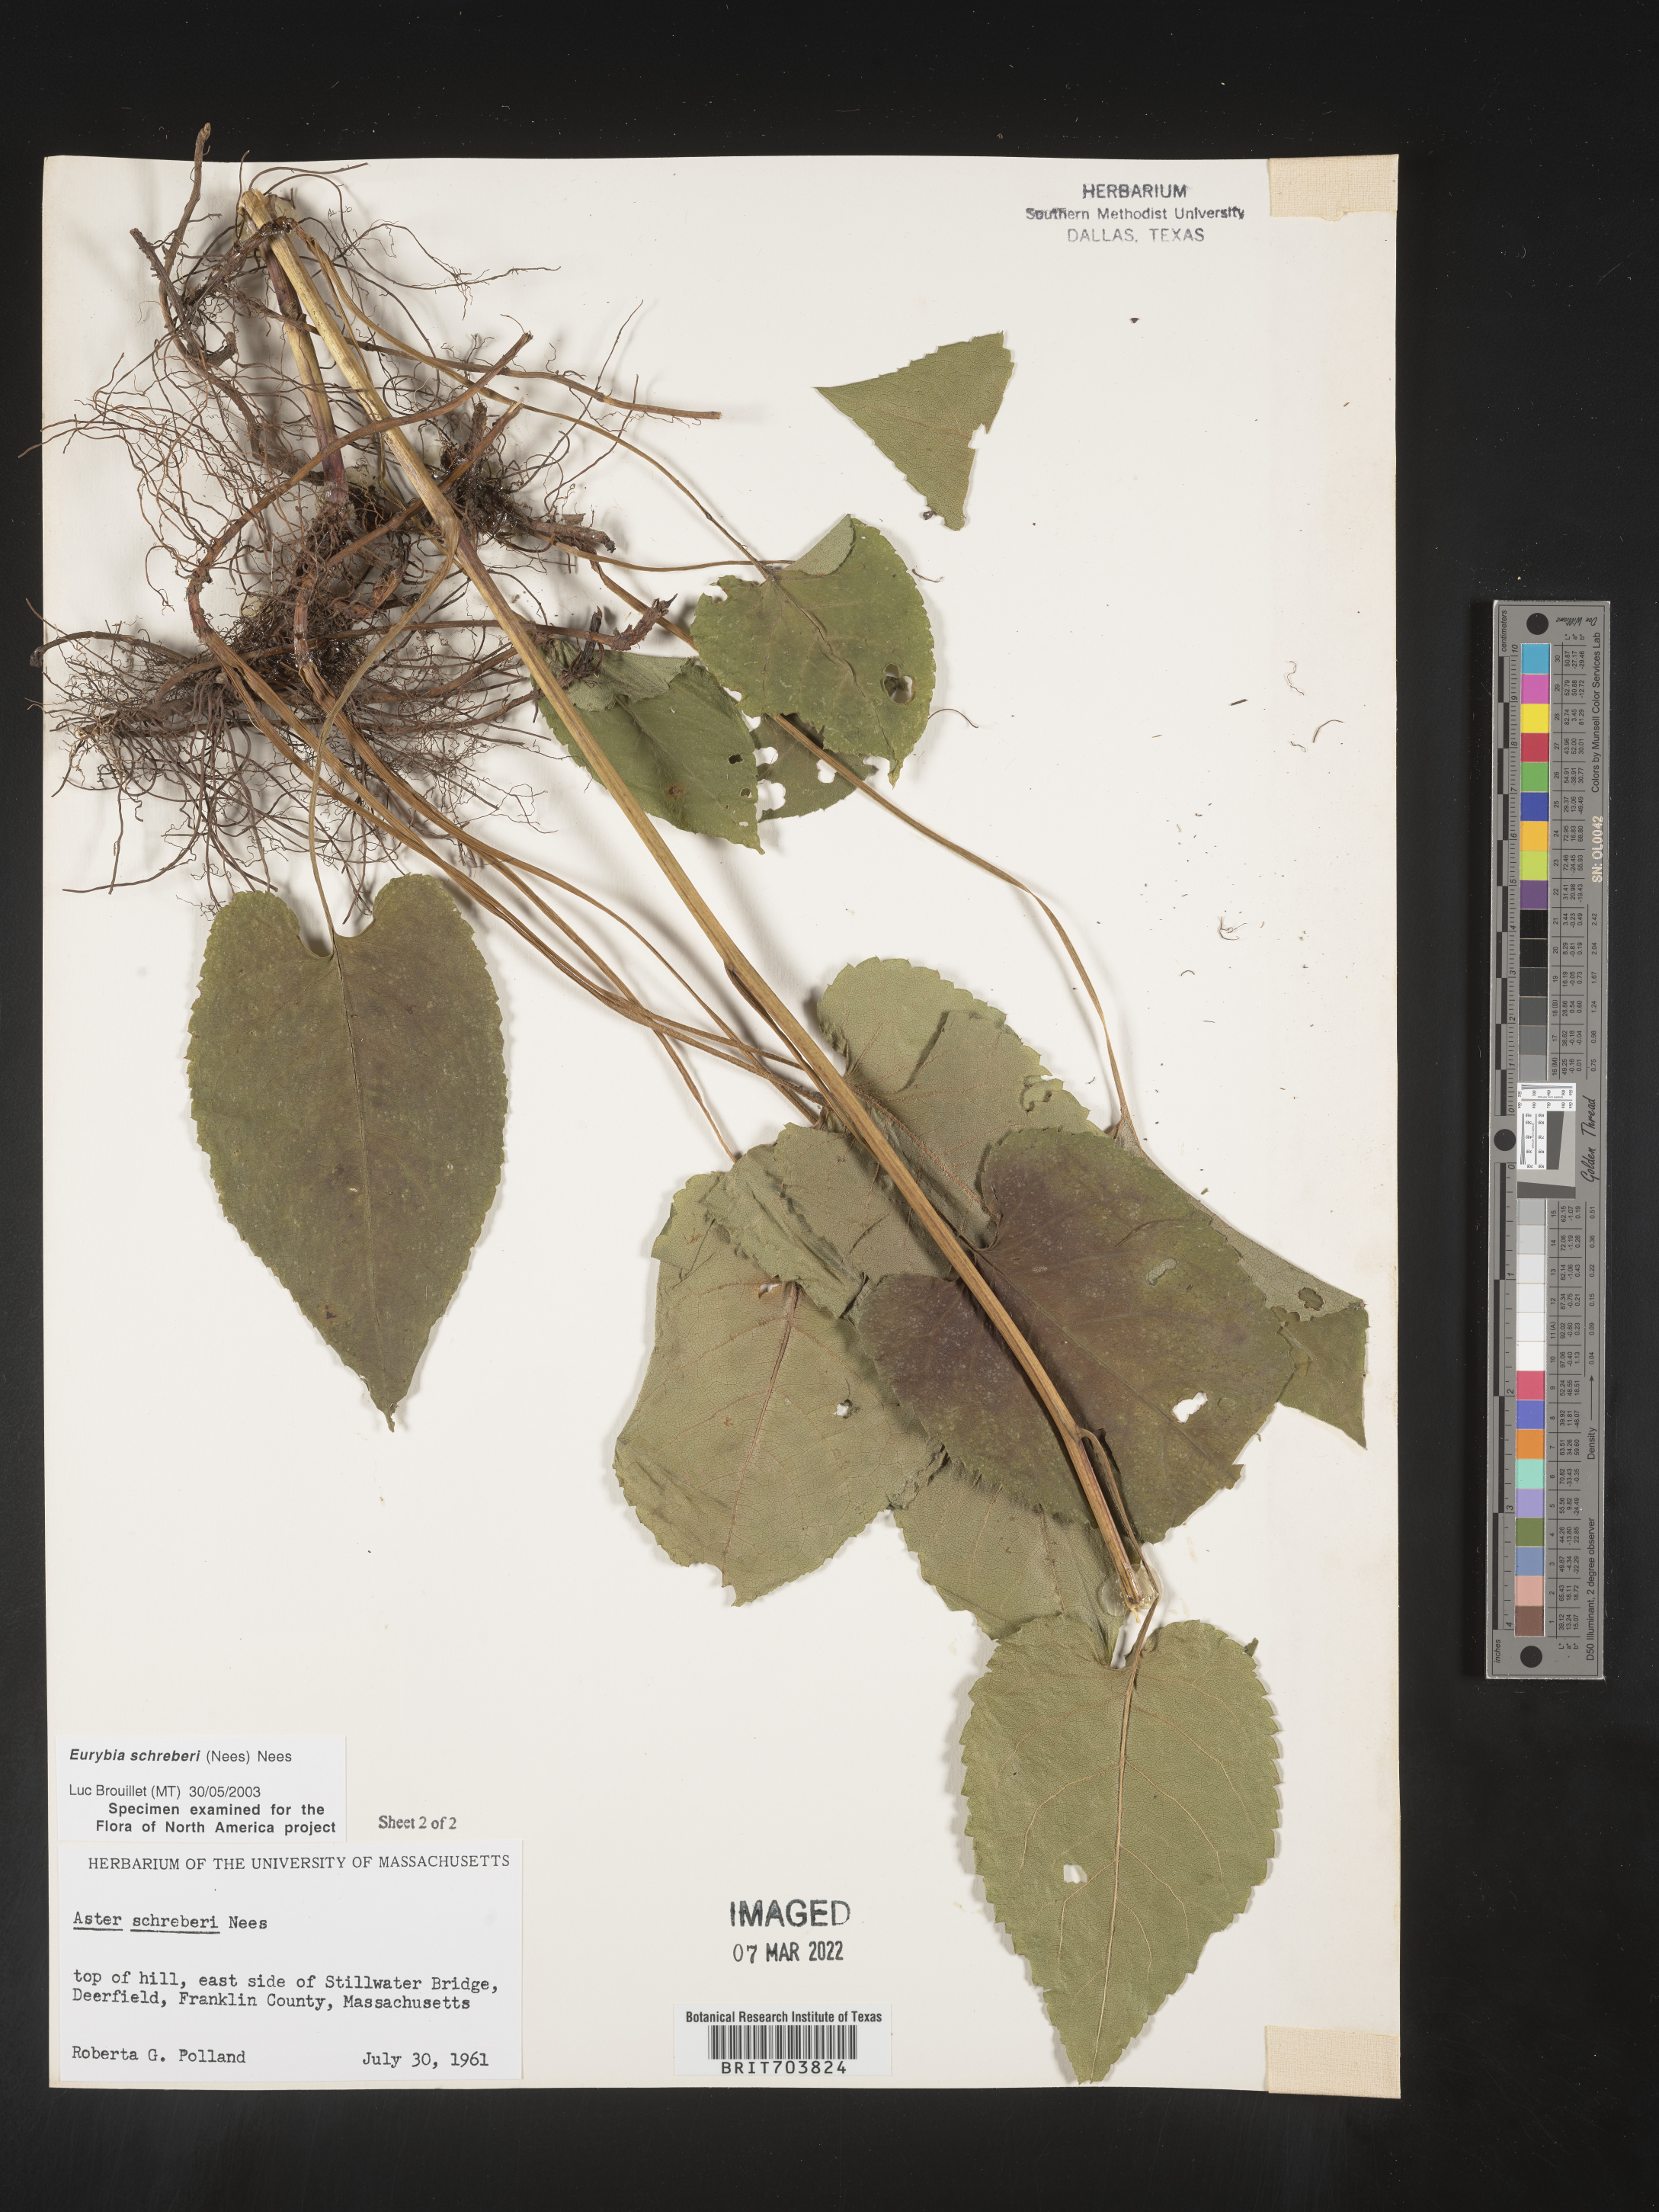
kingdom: Plantae
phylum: Tracheophyta
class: Magnoliopsida
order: Asterales
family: Asteraceae
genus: Eurybia
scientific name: Eurybia schreberi
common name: Schreber's aster
